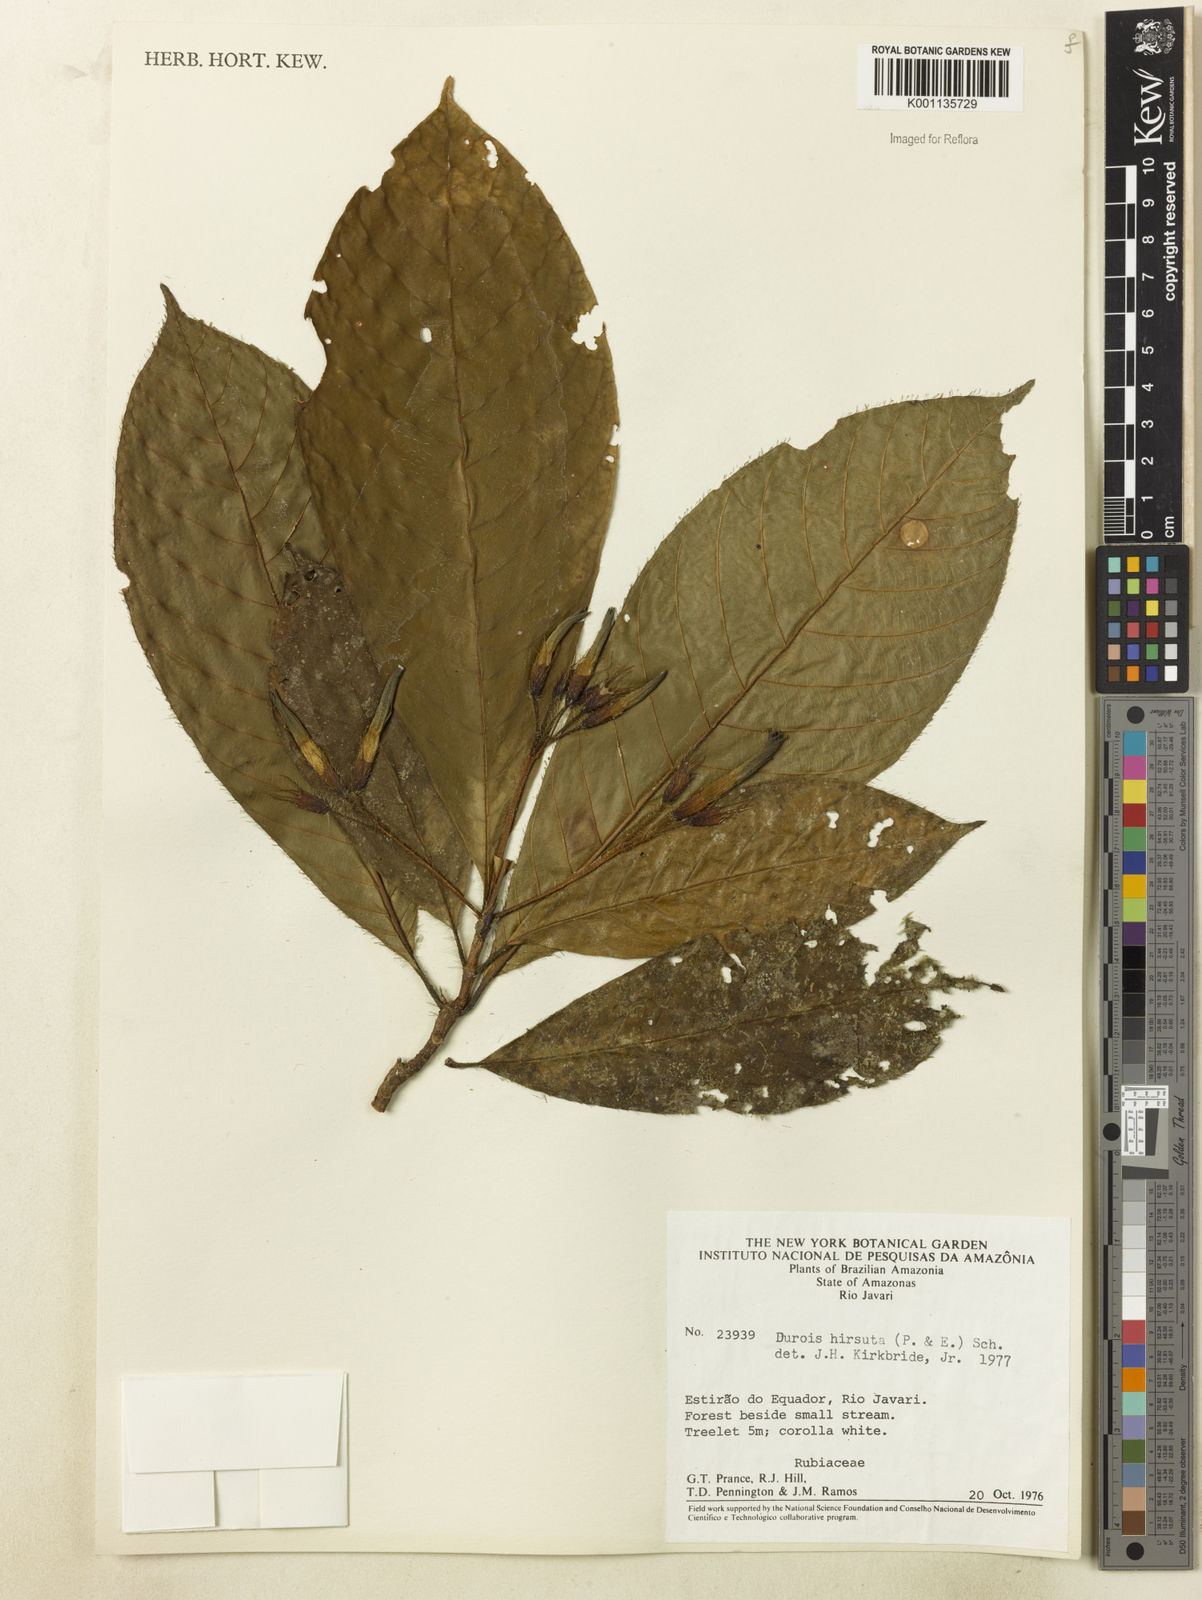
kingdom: Plantae
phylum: Tracheophyta
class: Magnoliopsida
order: Gentianales
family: Rubiaceae
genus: Duroia
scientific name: Duroia hirsuta
